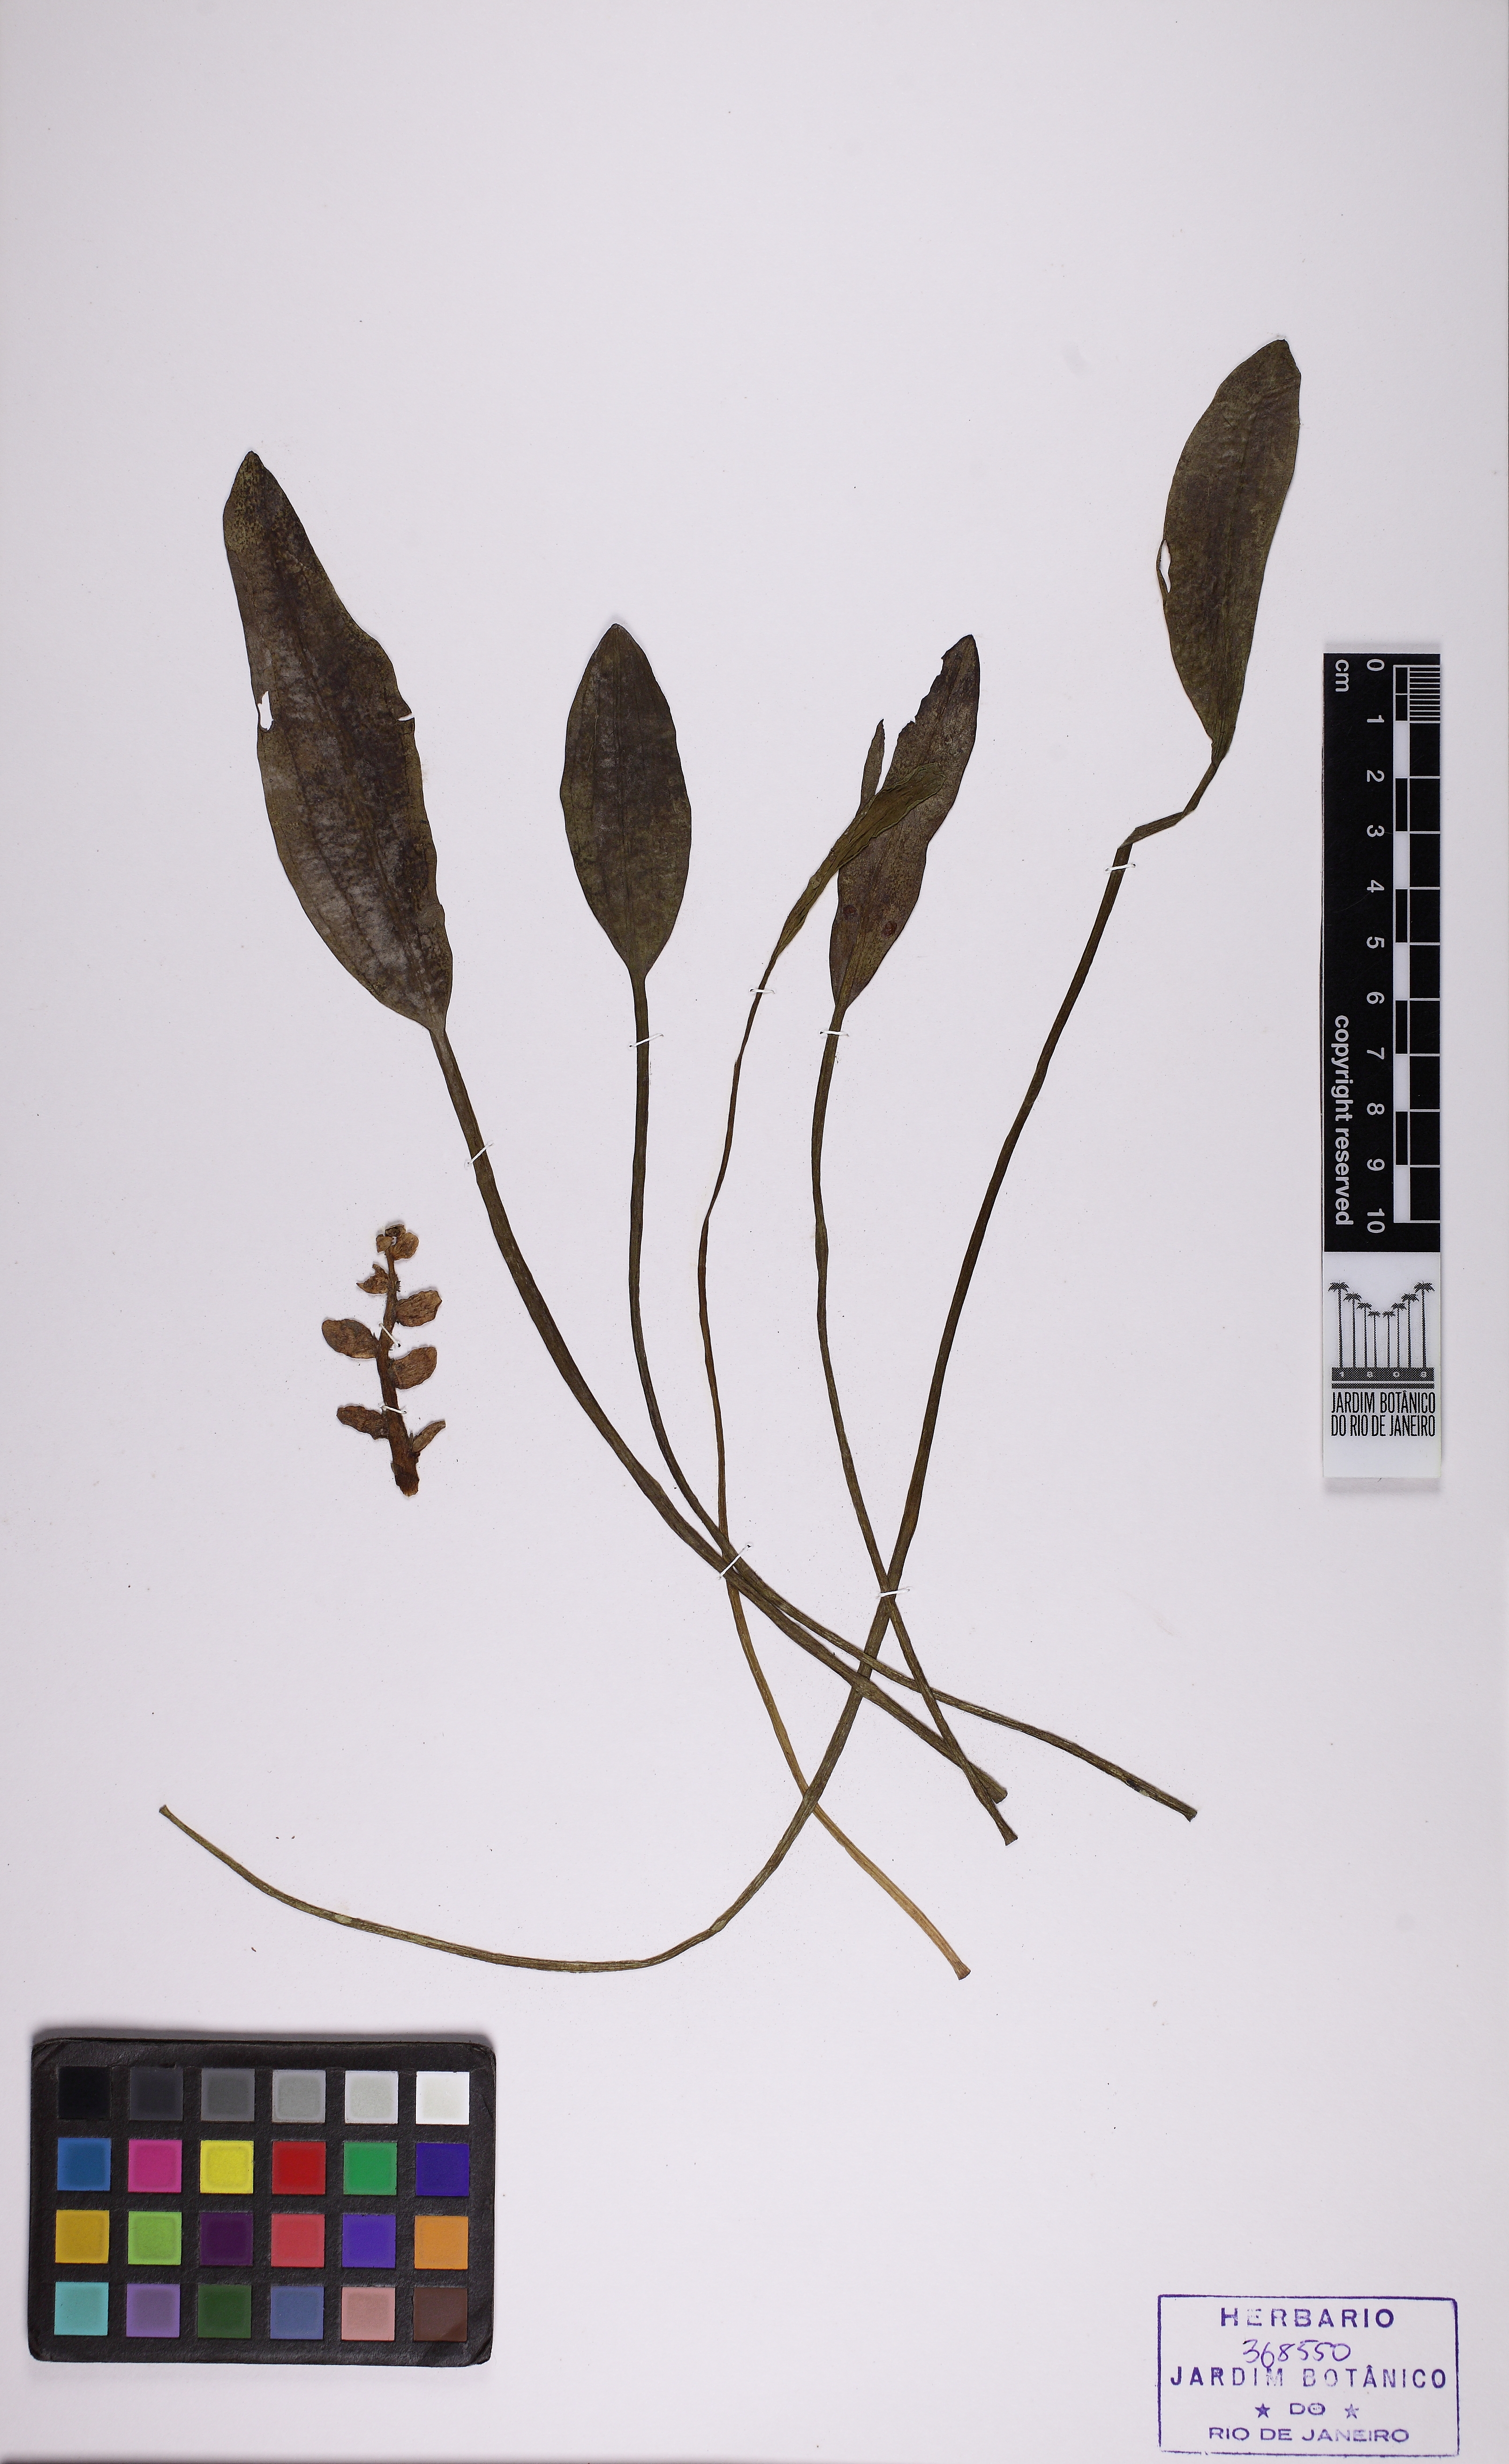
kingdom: Plantae
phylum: Tracheophyta
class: Liliopsida
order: Alismatales
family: Aponogetonaceae
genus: Aponogeton
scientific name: Aponogeton distachyos
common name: Cape-pondweed
